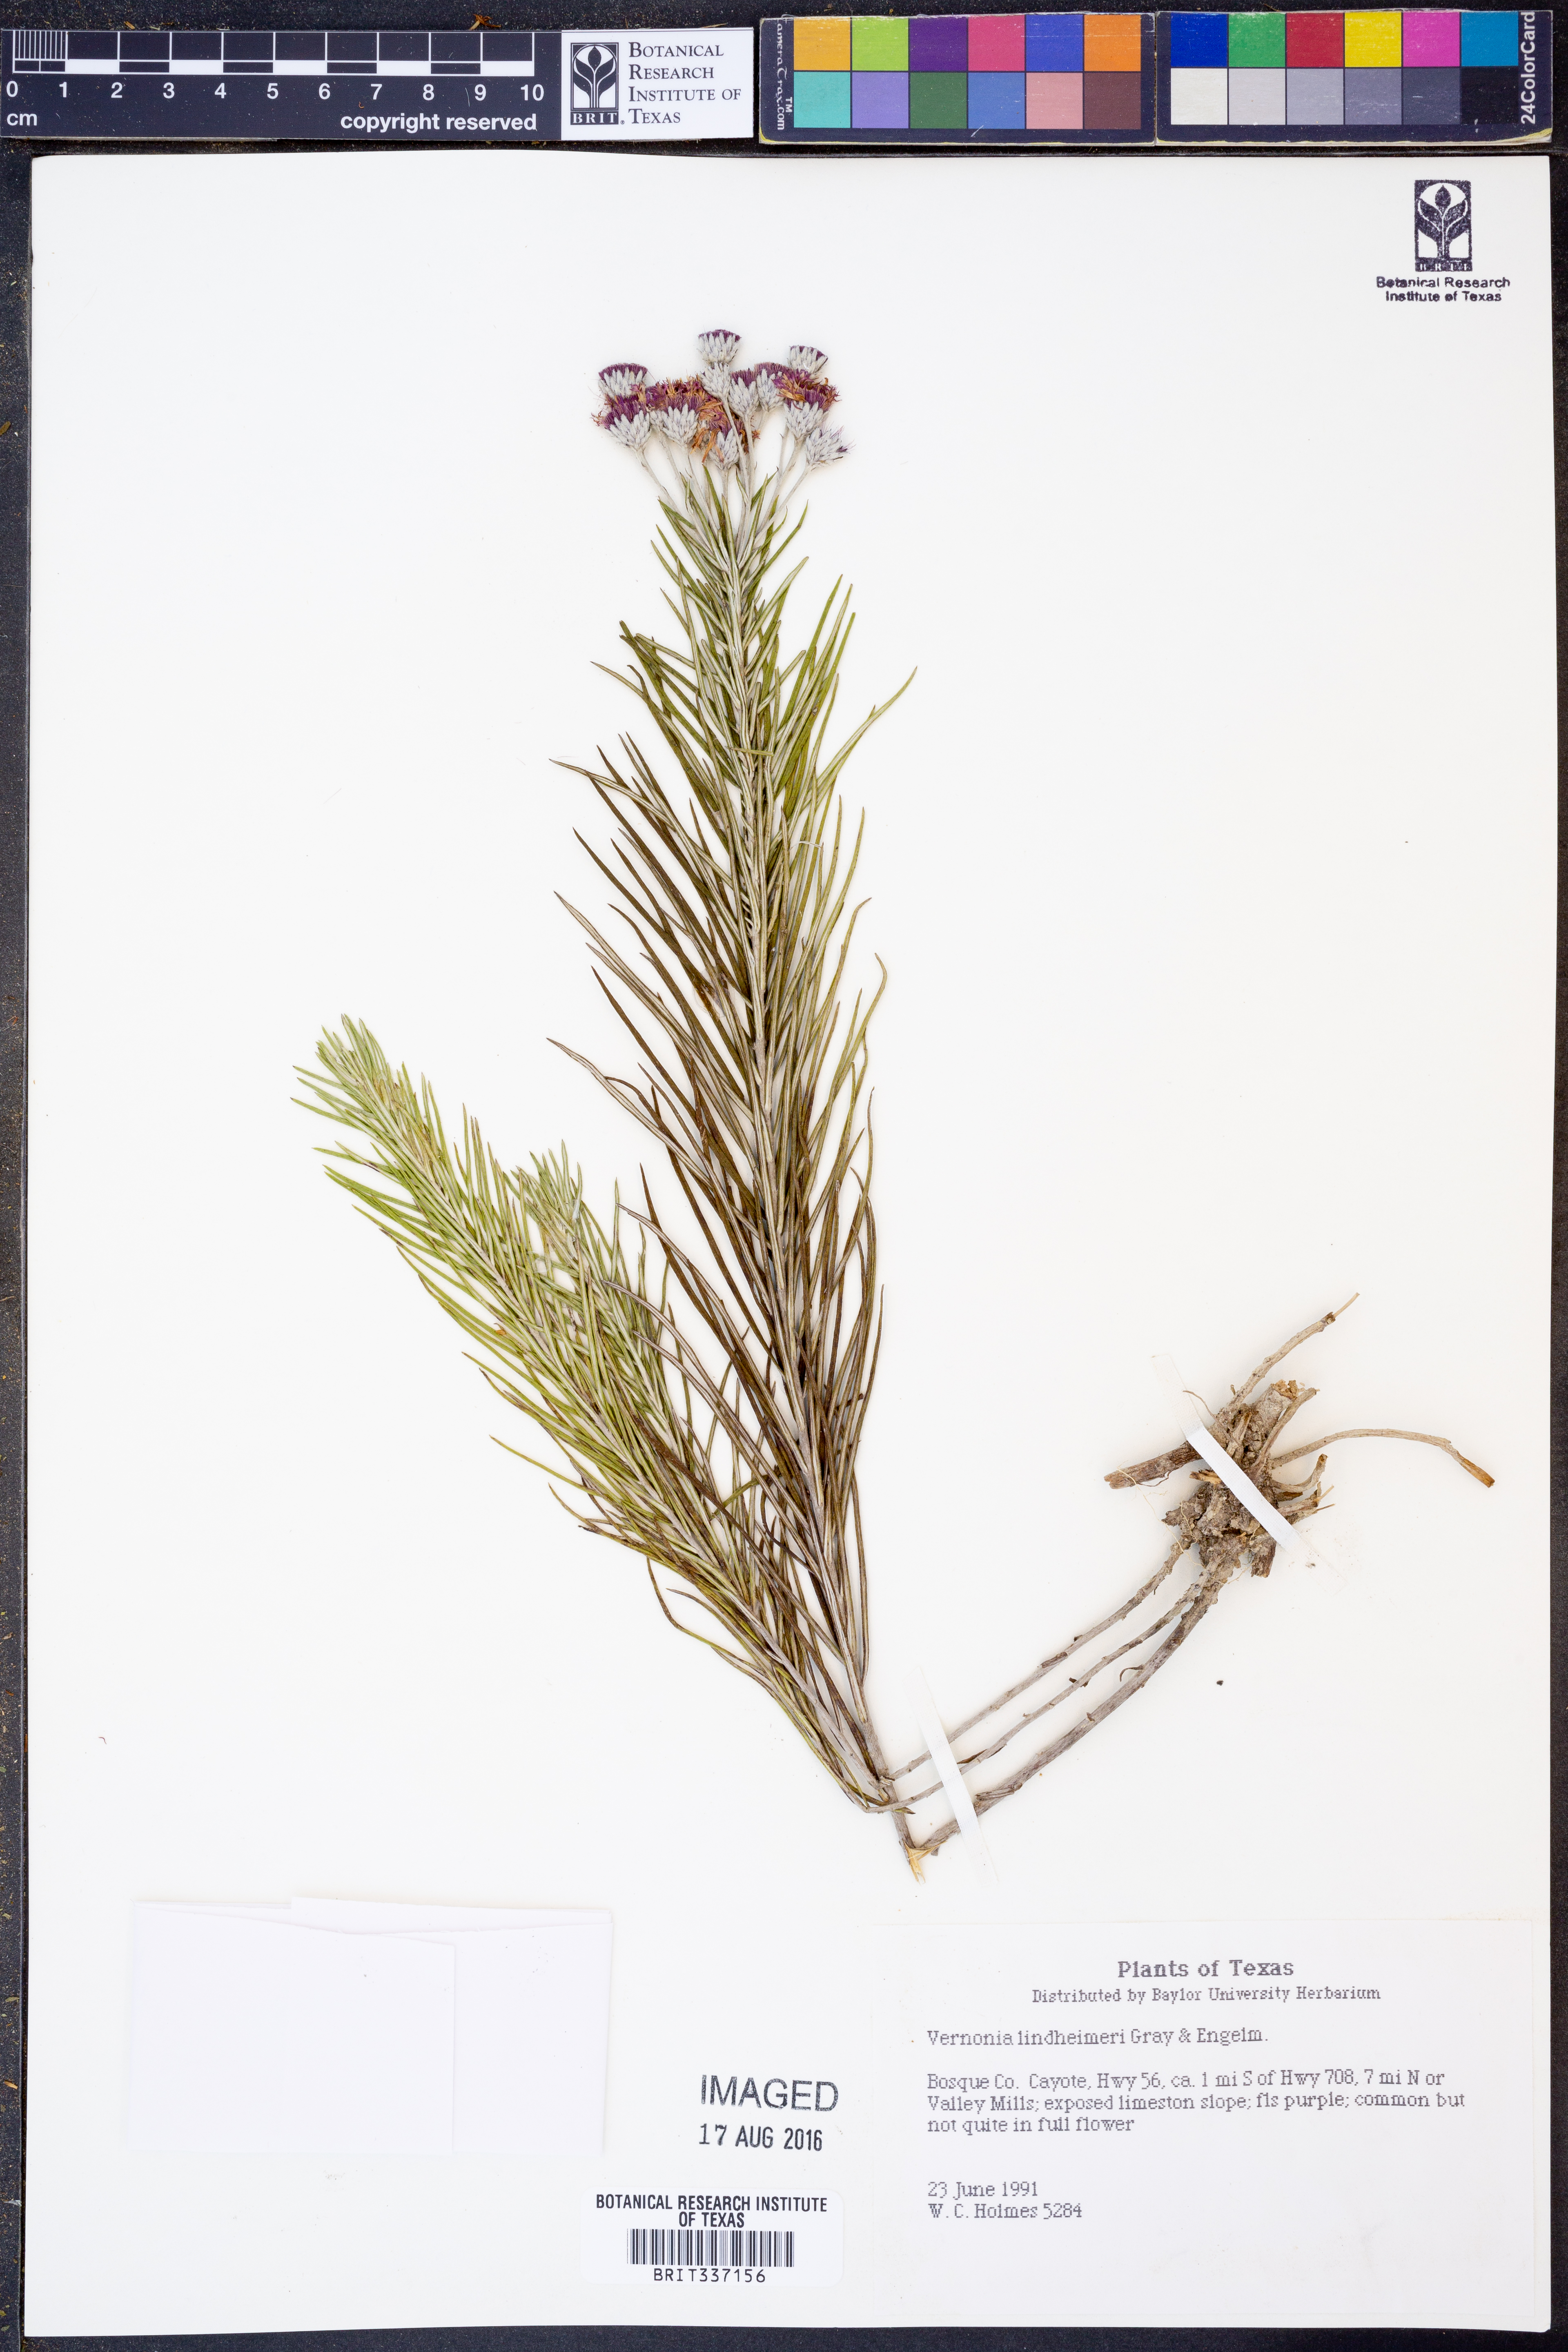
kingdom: Plantae
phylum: Tracheophyta
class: Magnoliopsida
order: Asterales
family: Asteraceae
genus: Vernonia
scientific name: Vernonia lindheimeri
